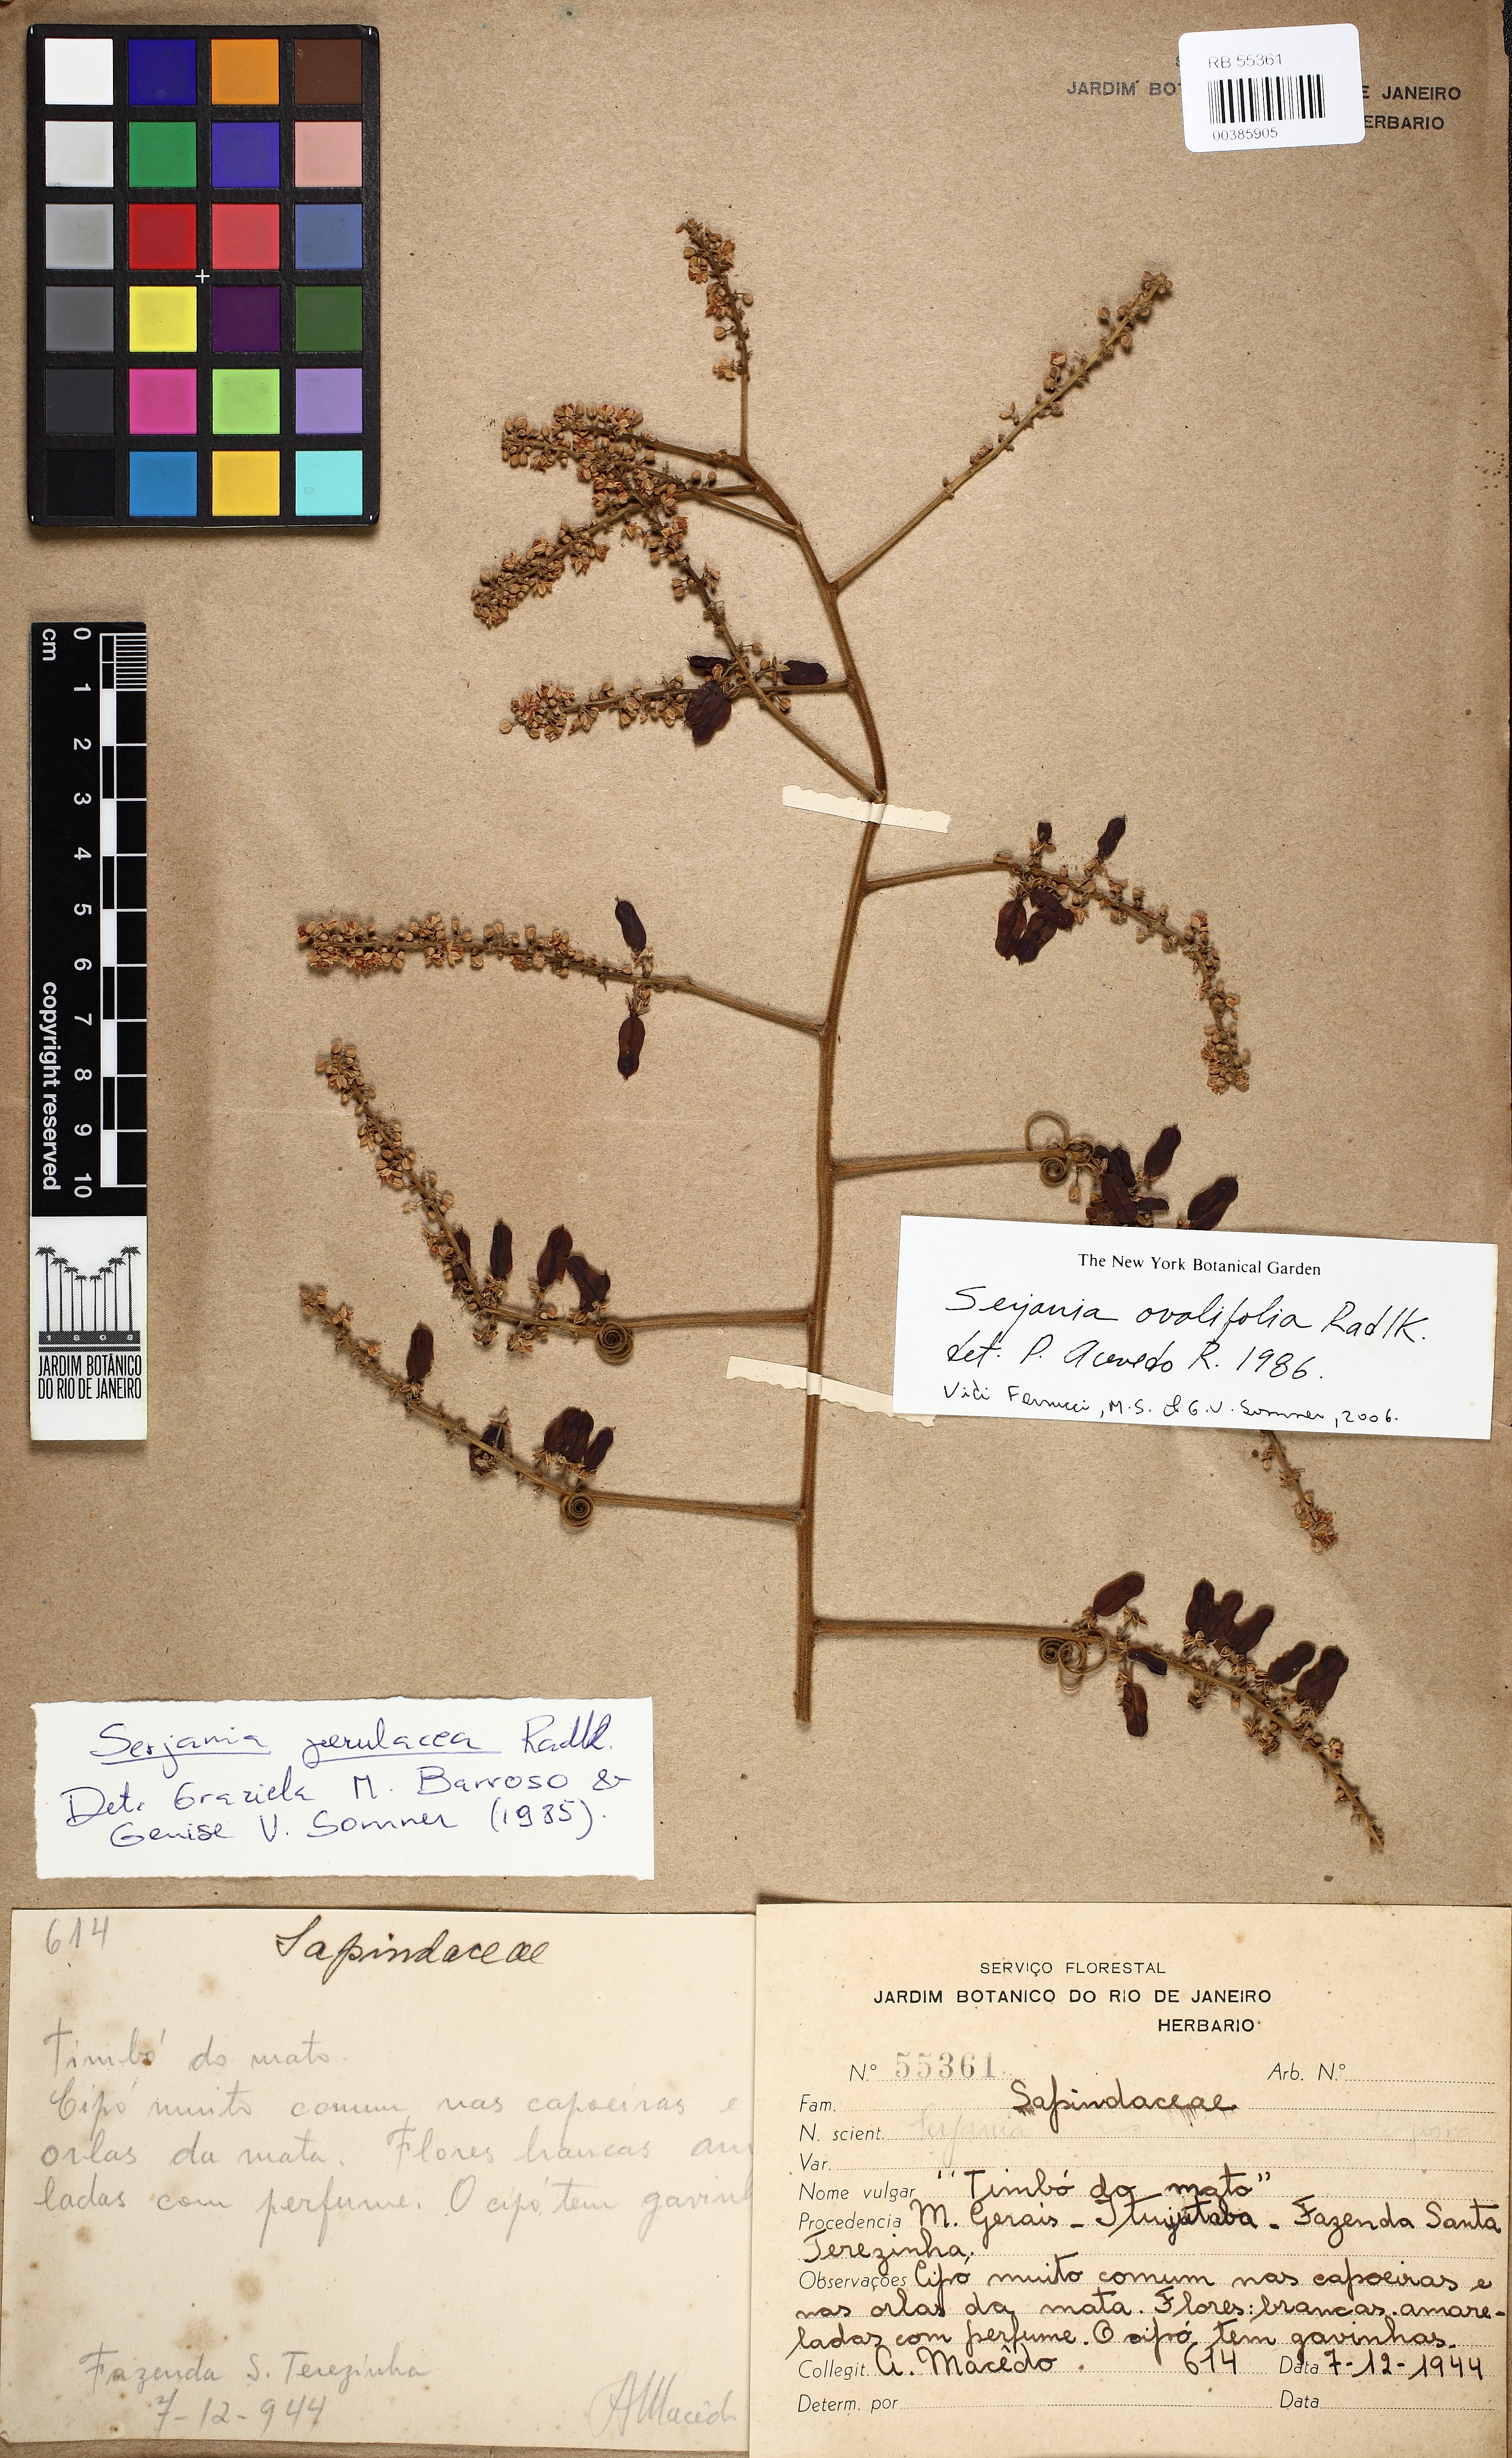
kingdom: Plantae
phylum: Tracheophyta
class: Magnoliopsida
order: Sapindales
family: Sapindaceae
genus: Serjania
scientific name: Serjania ovalifolia
